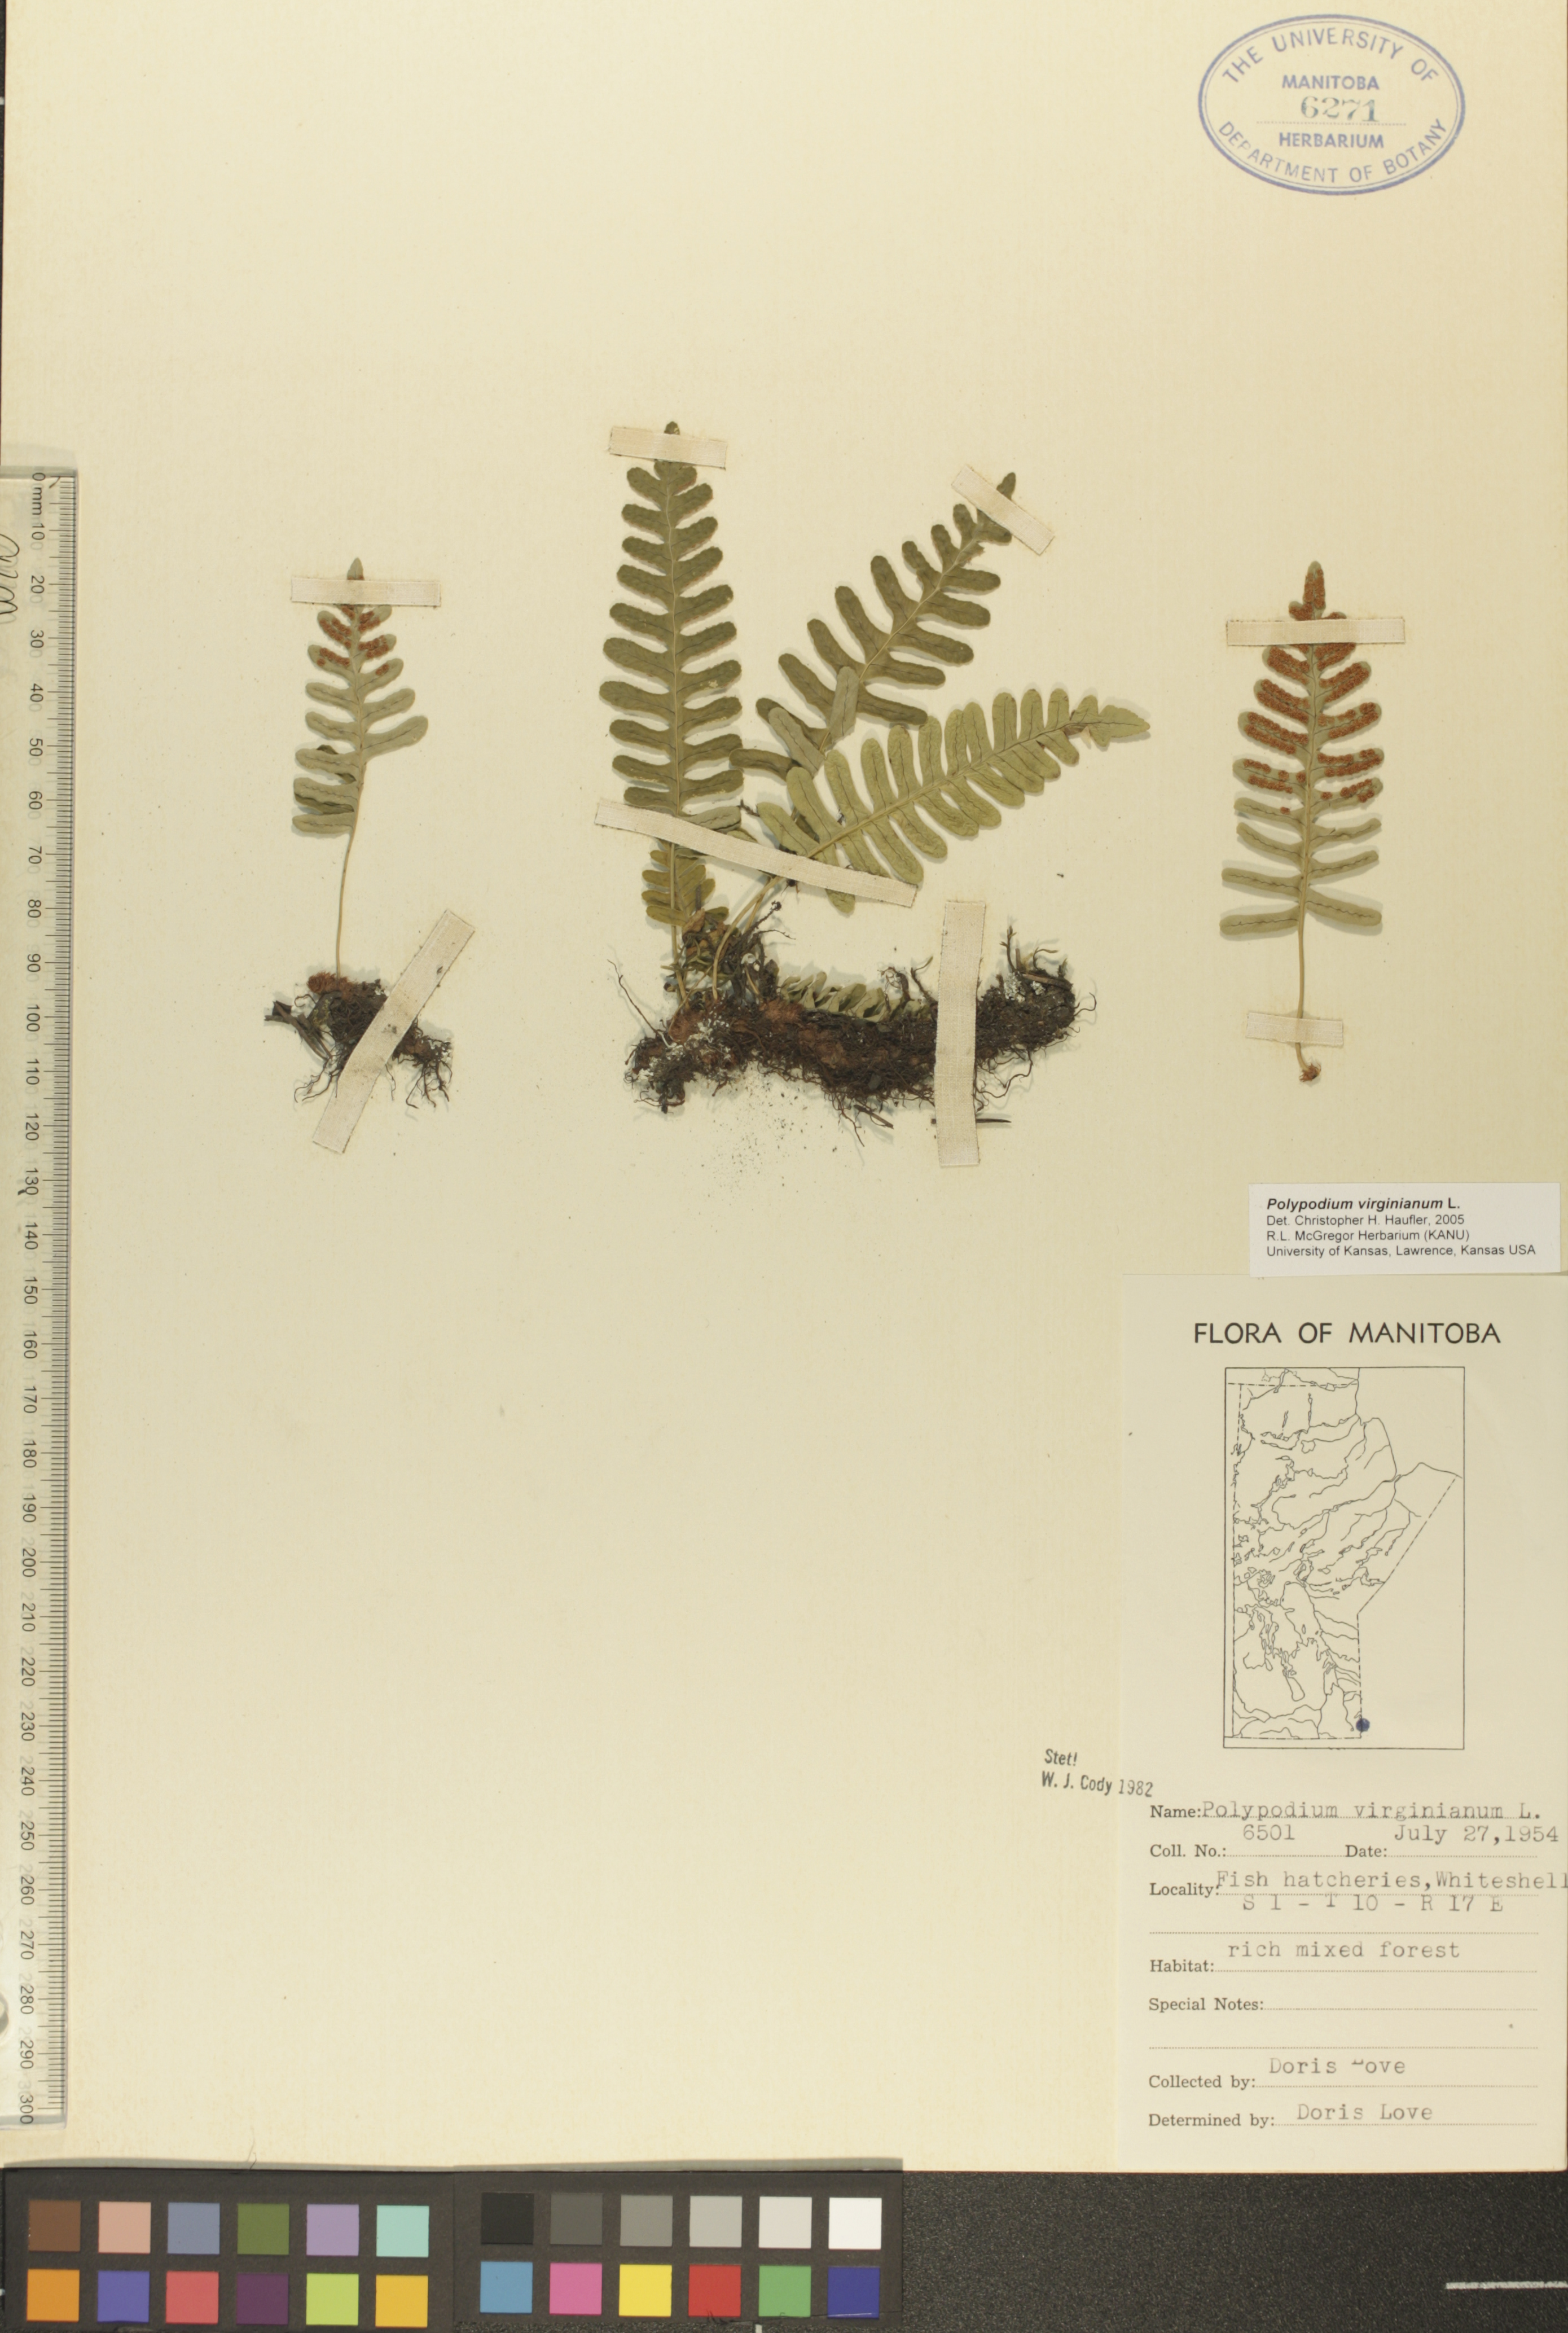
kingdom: Plantae
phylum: Tracheophyta
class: Polypodiopsida
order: Polypodiales
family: Polypodiaceae
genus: Polypodium
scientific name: Polypodium virginianum
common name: American wall fern
